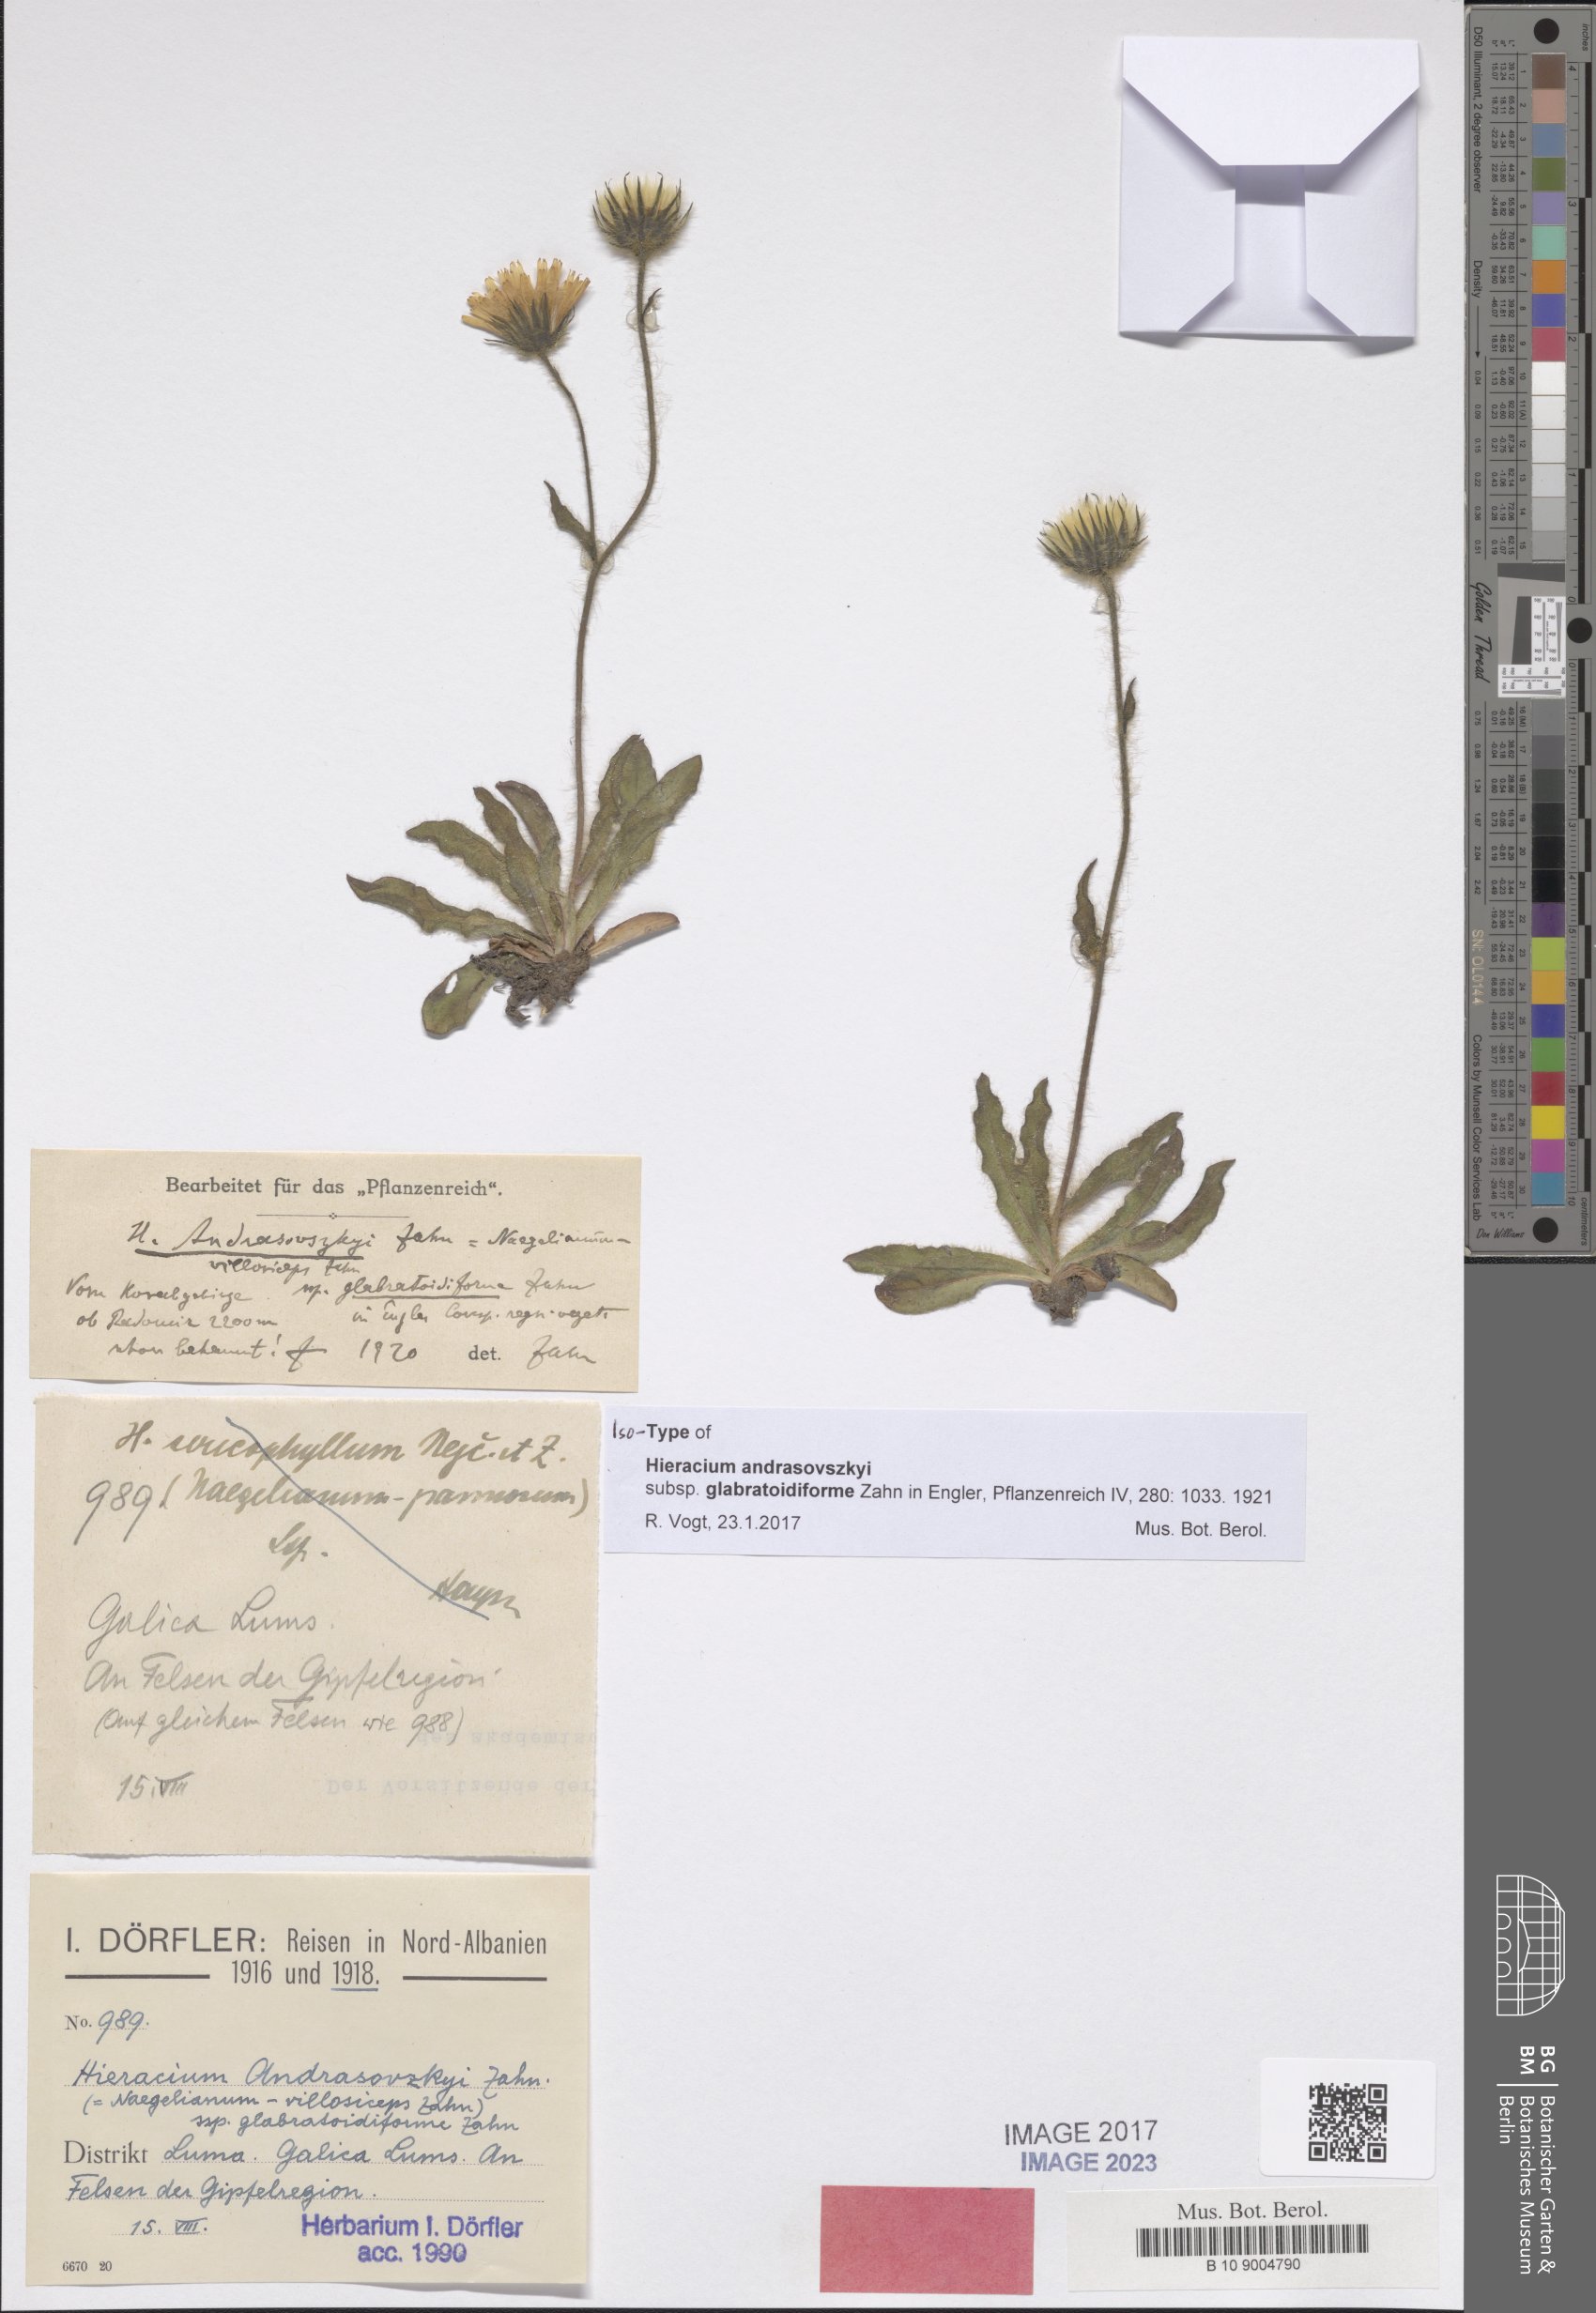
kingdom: Plantae
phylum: Tracheophyta
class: Magnoliopsida
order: Asterales
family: Asteraceae
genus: Hieracium
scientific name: Hieracium andrasovszkyi
